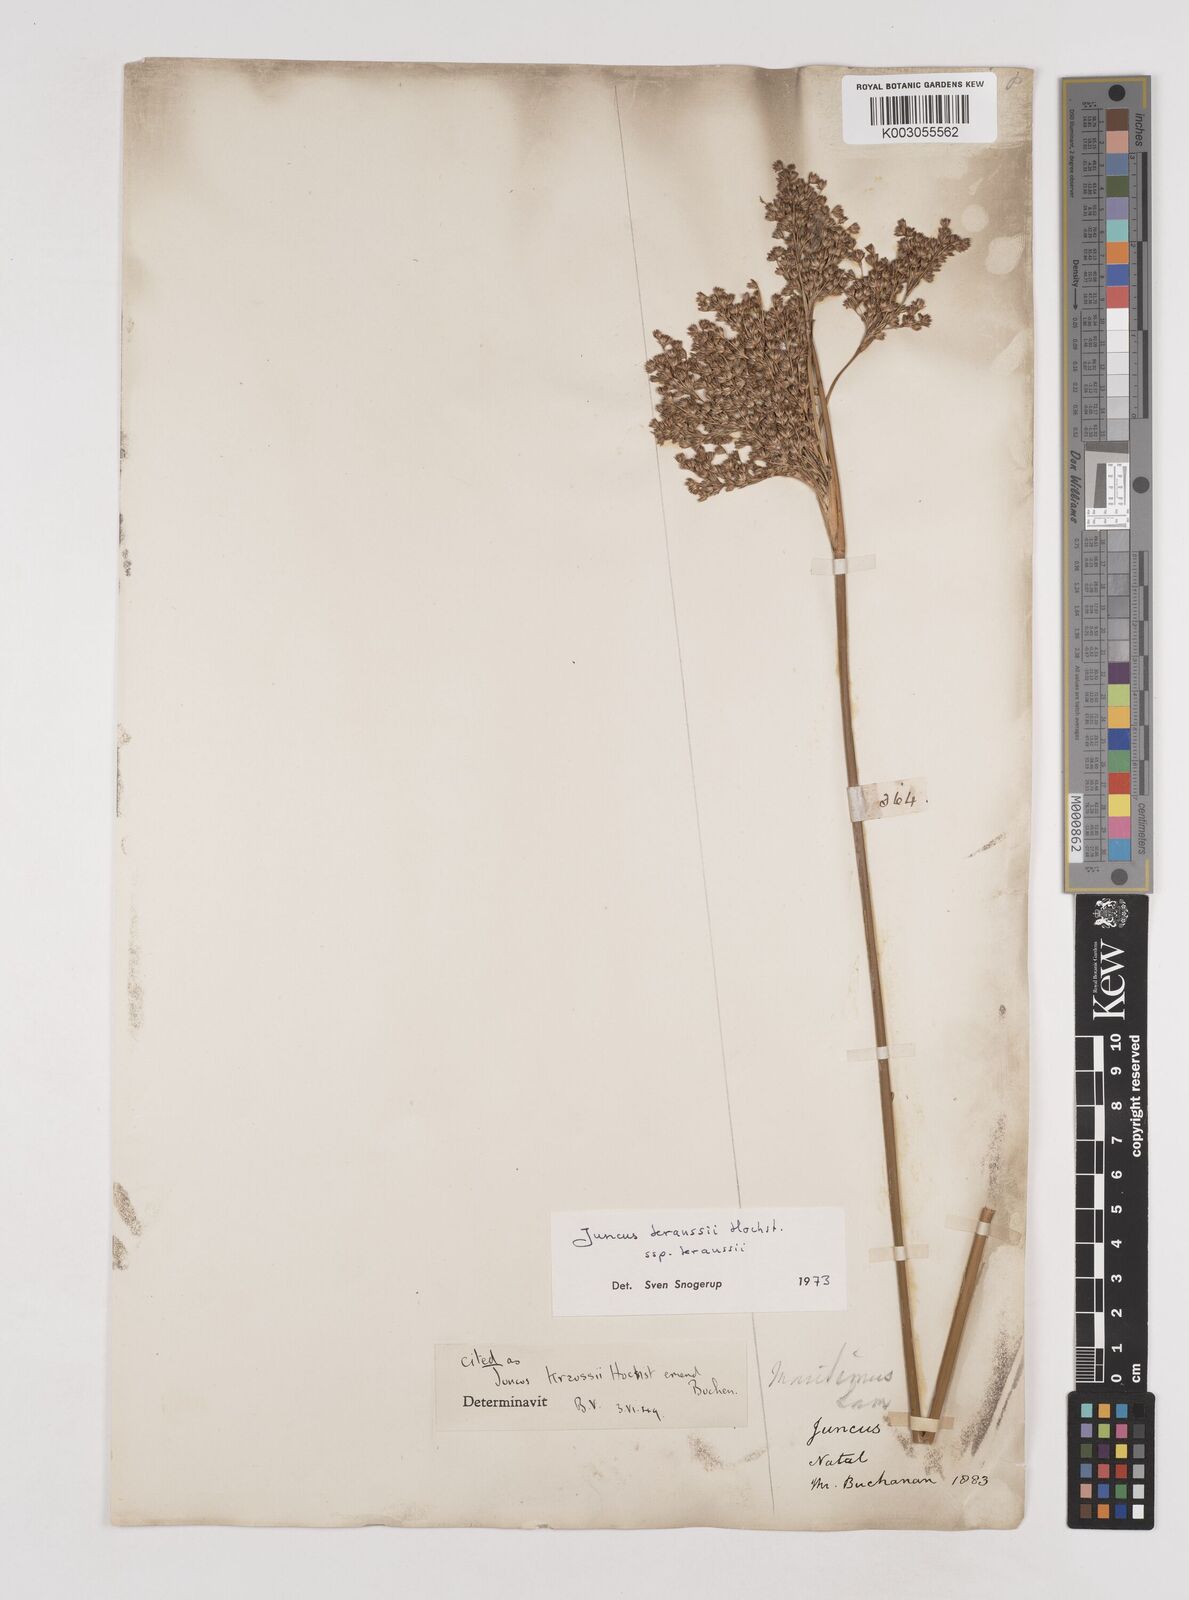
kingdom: Plantae
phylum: Tracheophyta
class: Liliopsida
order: Poales
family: Juncaceae
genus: Juncus
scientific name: Juncus kraussii
